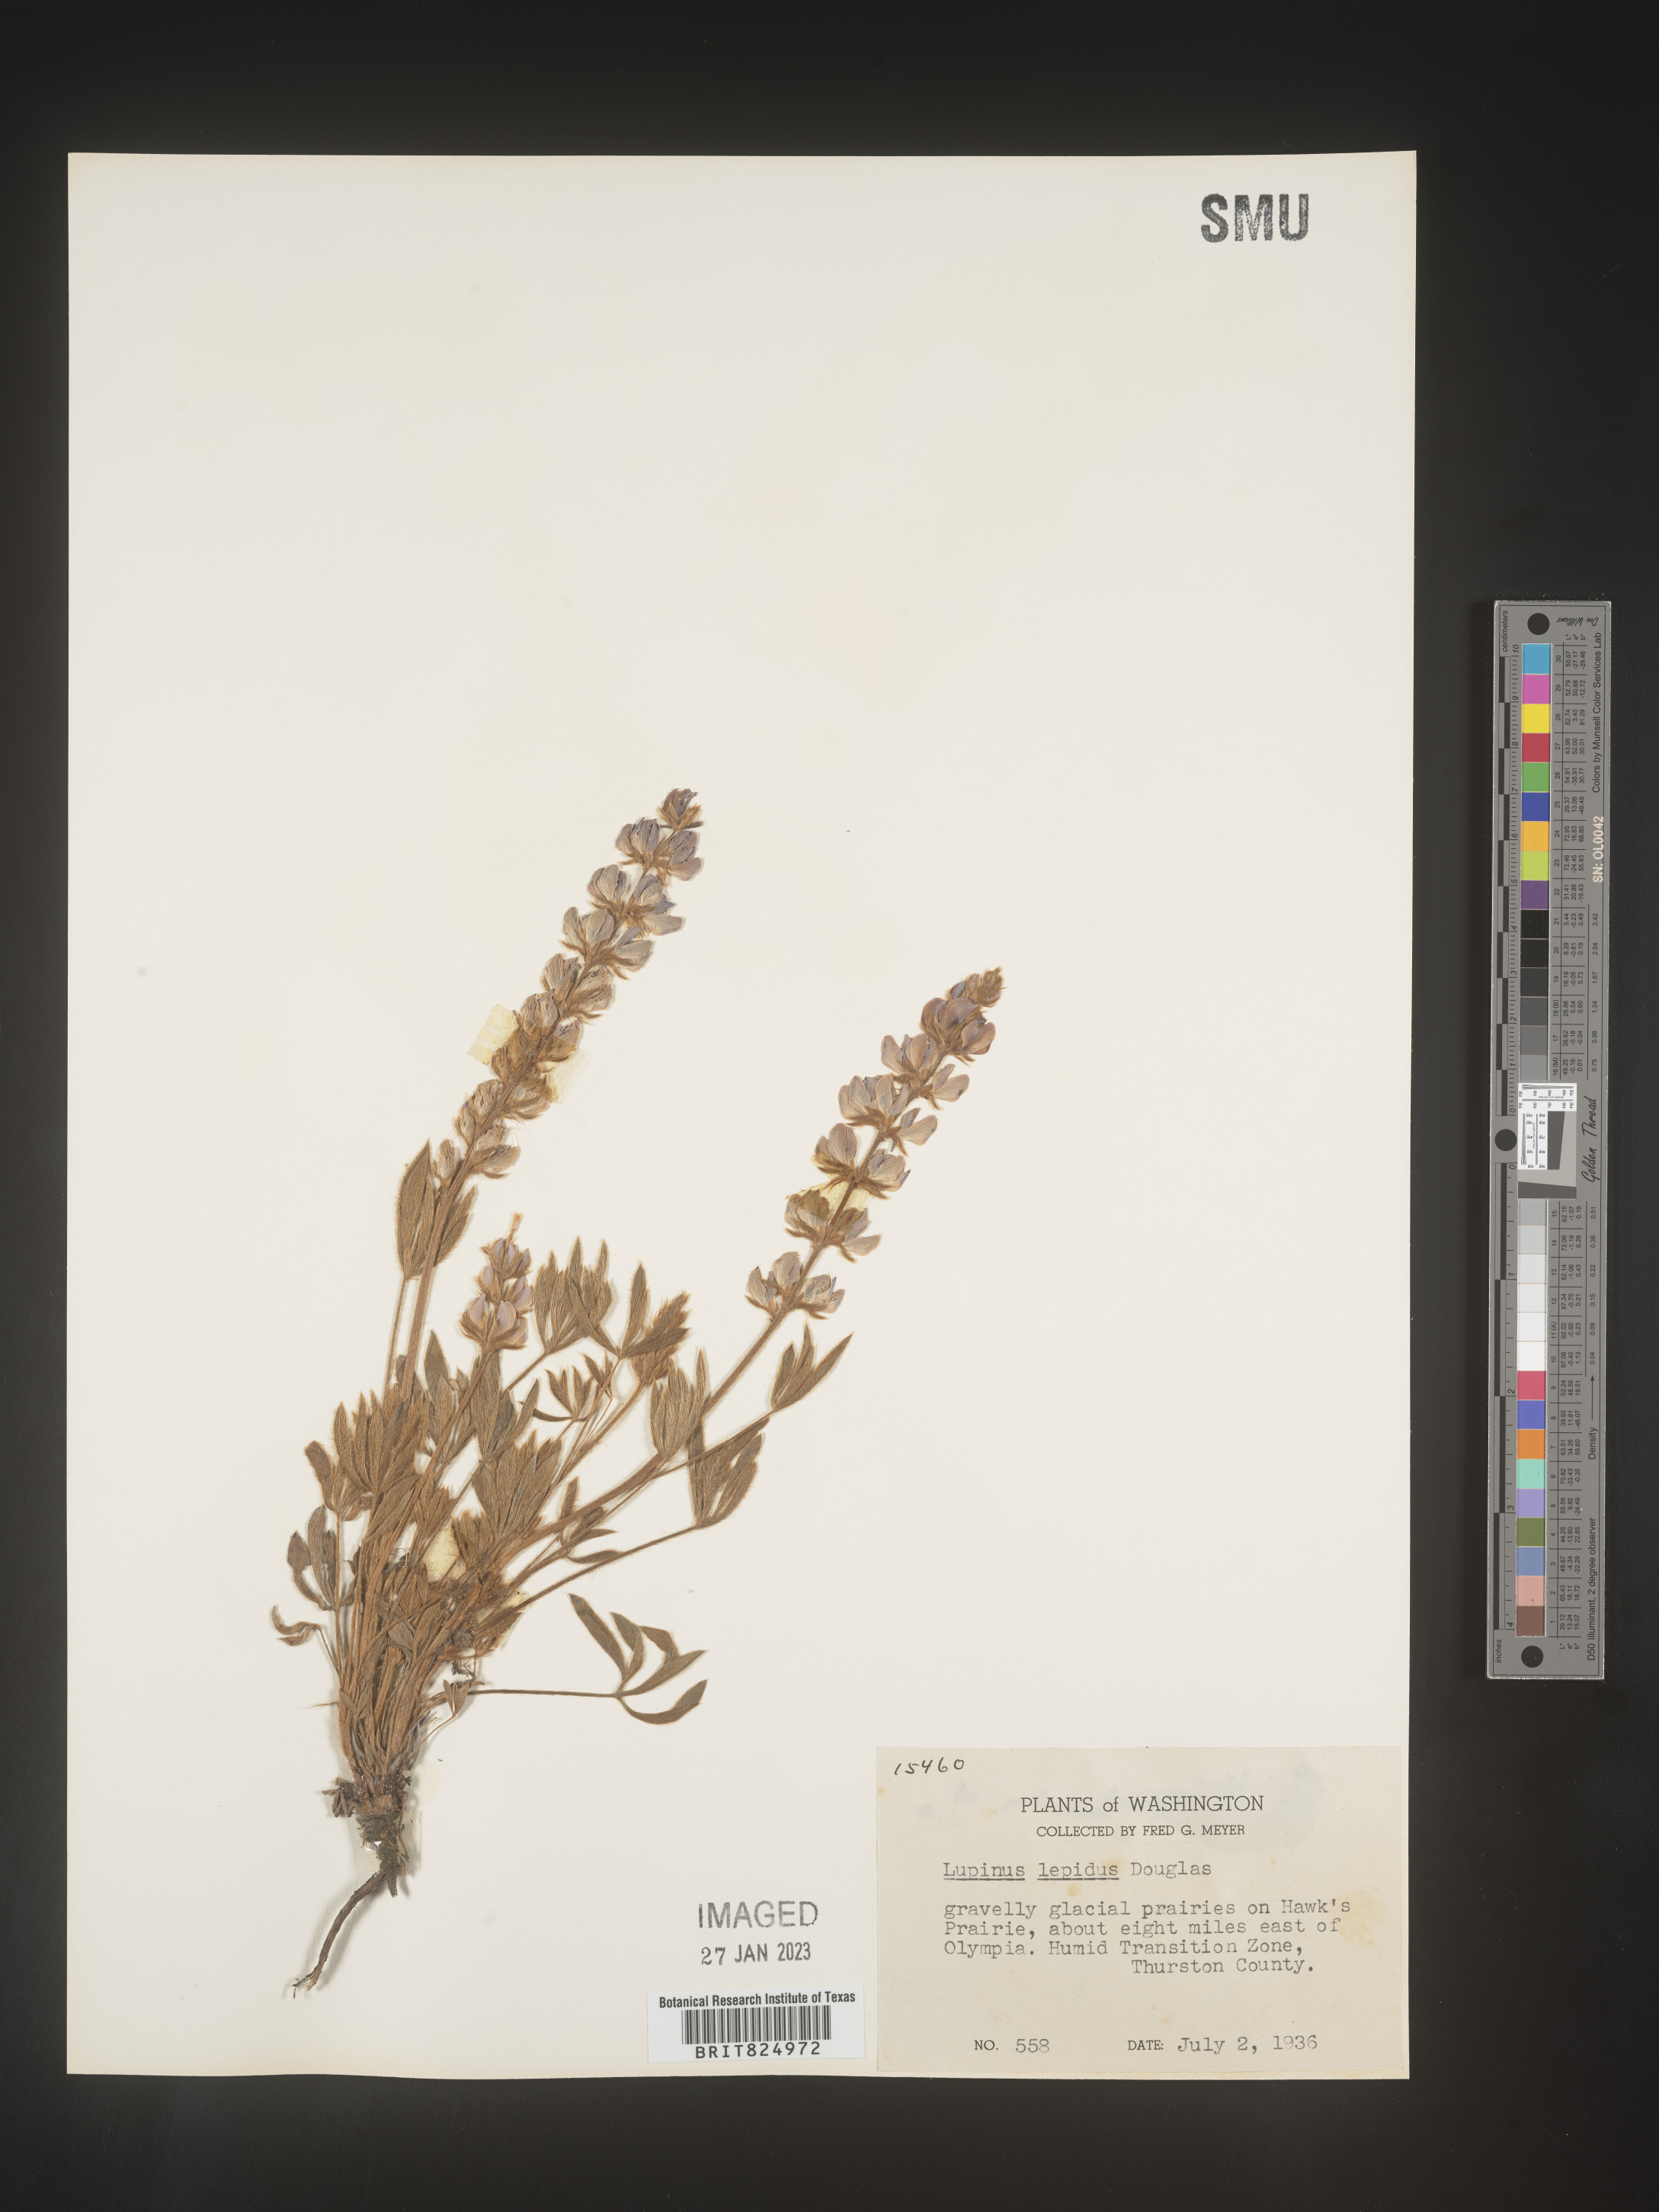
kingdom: Plantae
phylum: Tracheophyta
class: Magnoliopsida
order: Fabales
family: Fabaceae
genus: Lupinus
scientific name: Lupinus
